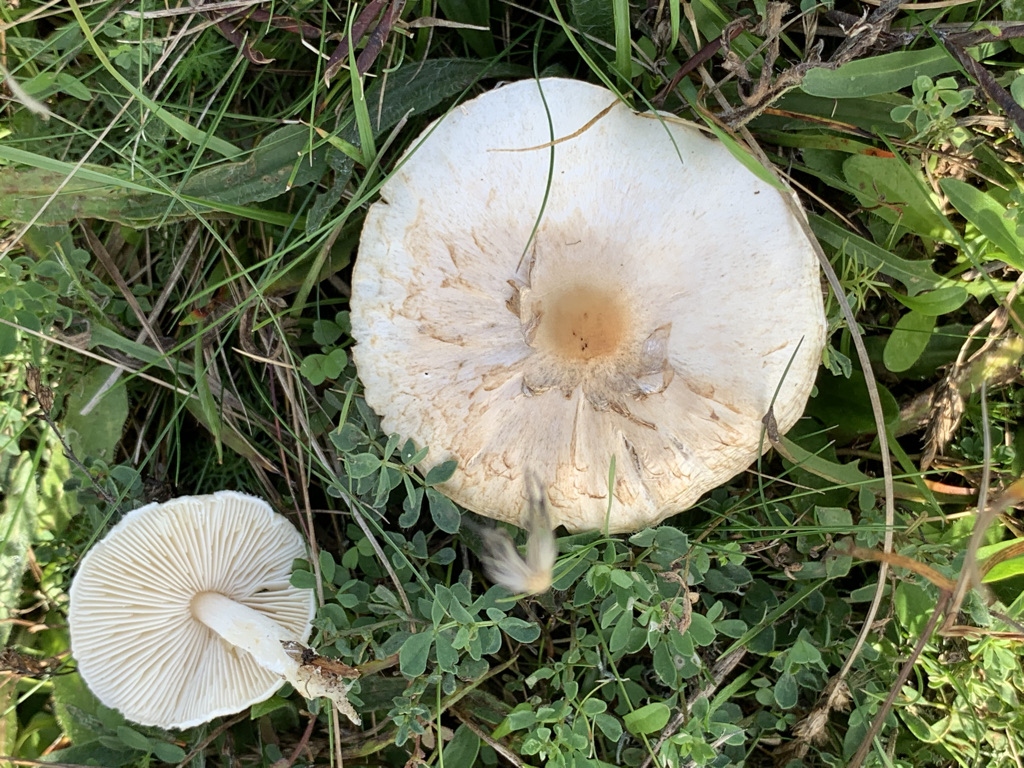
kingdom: Fungi
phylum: Basidiomycota
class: Agaricomycetes
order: Agaricales
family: Agaricaceae
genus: Lepiota
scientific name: Lepiota erminea
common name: hvid parasolhat
